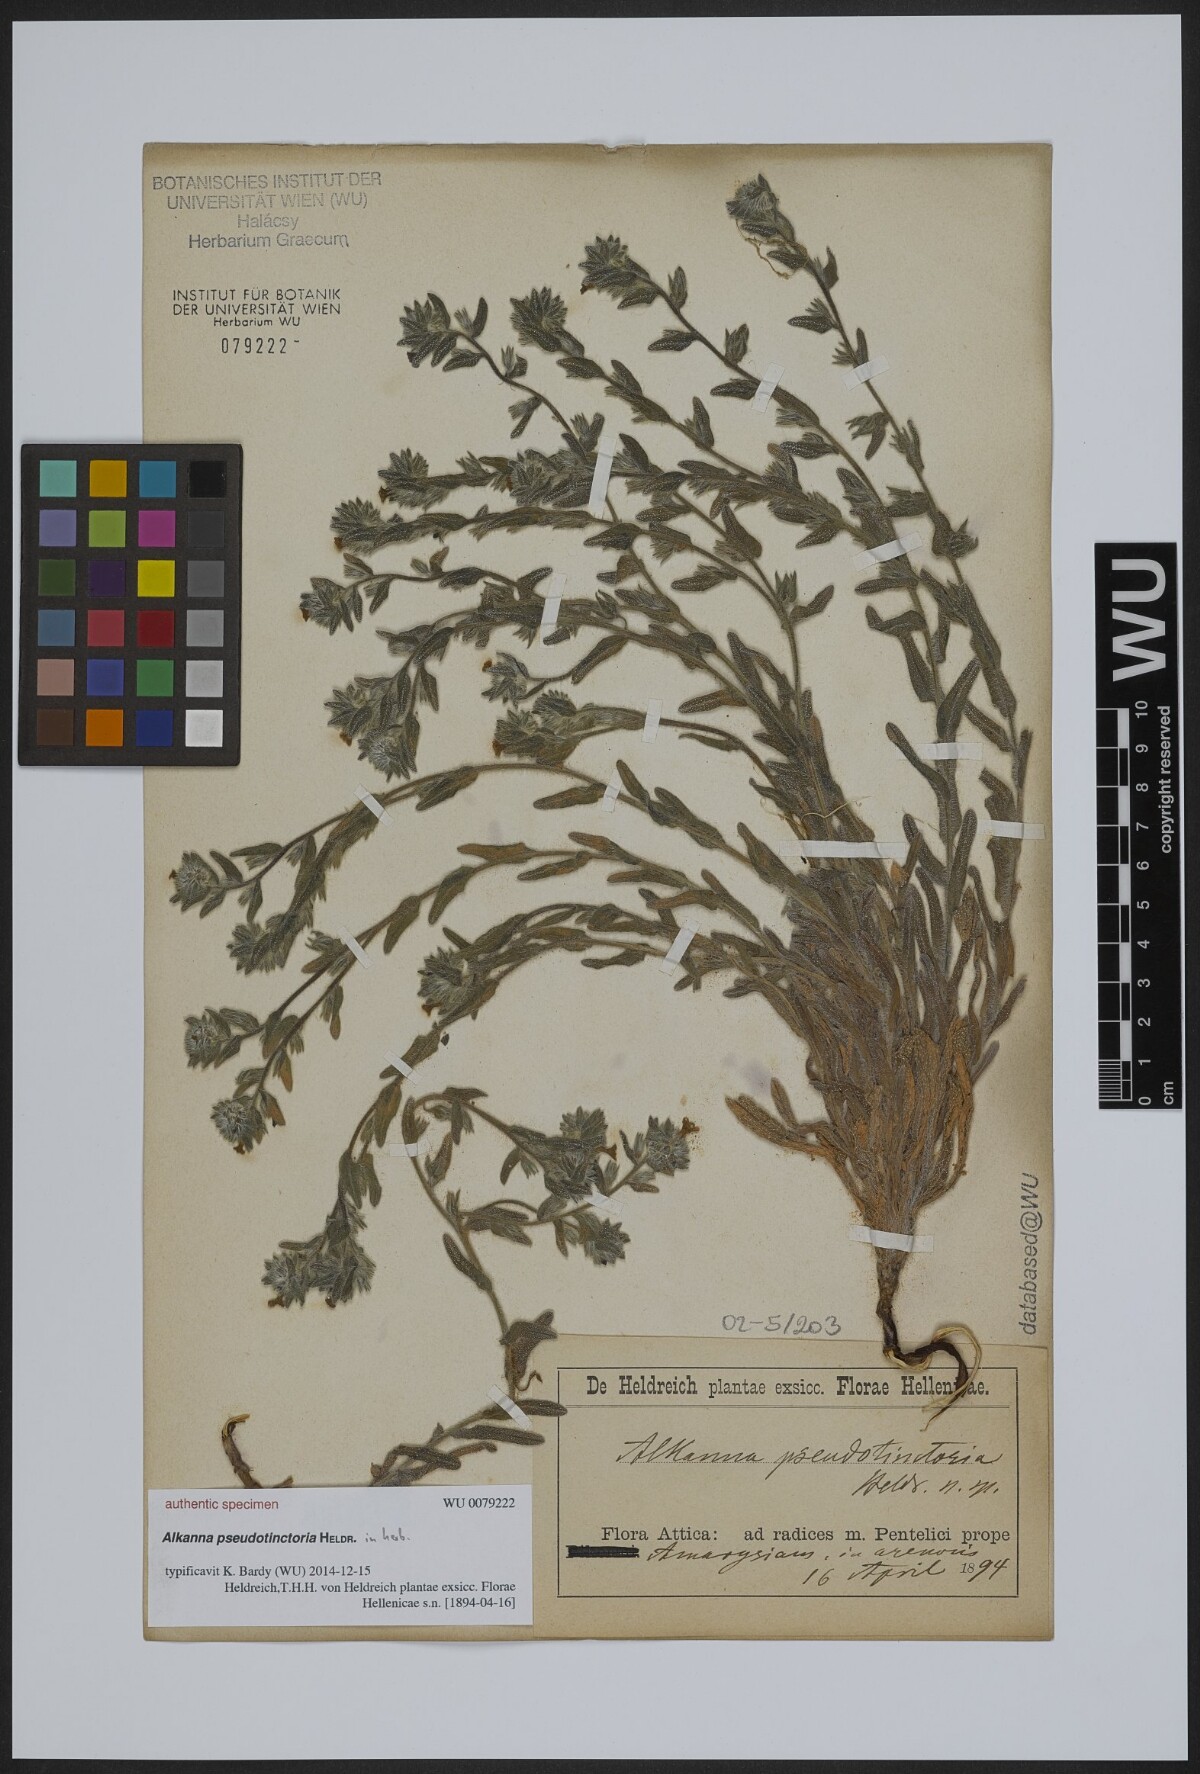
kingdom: Plantae
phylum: Tracheophyta
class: Magnoliopsida
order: Boraginales
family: Boraginaceae
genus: Alkanna
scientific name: Alkanna pseudotinctoria
